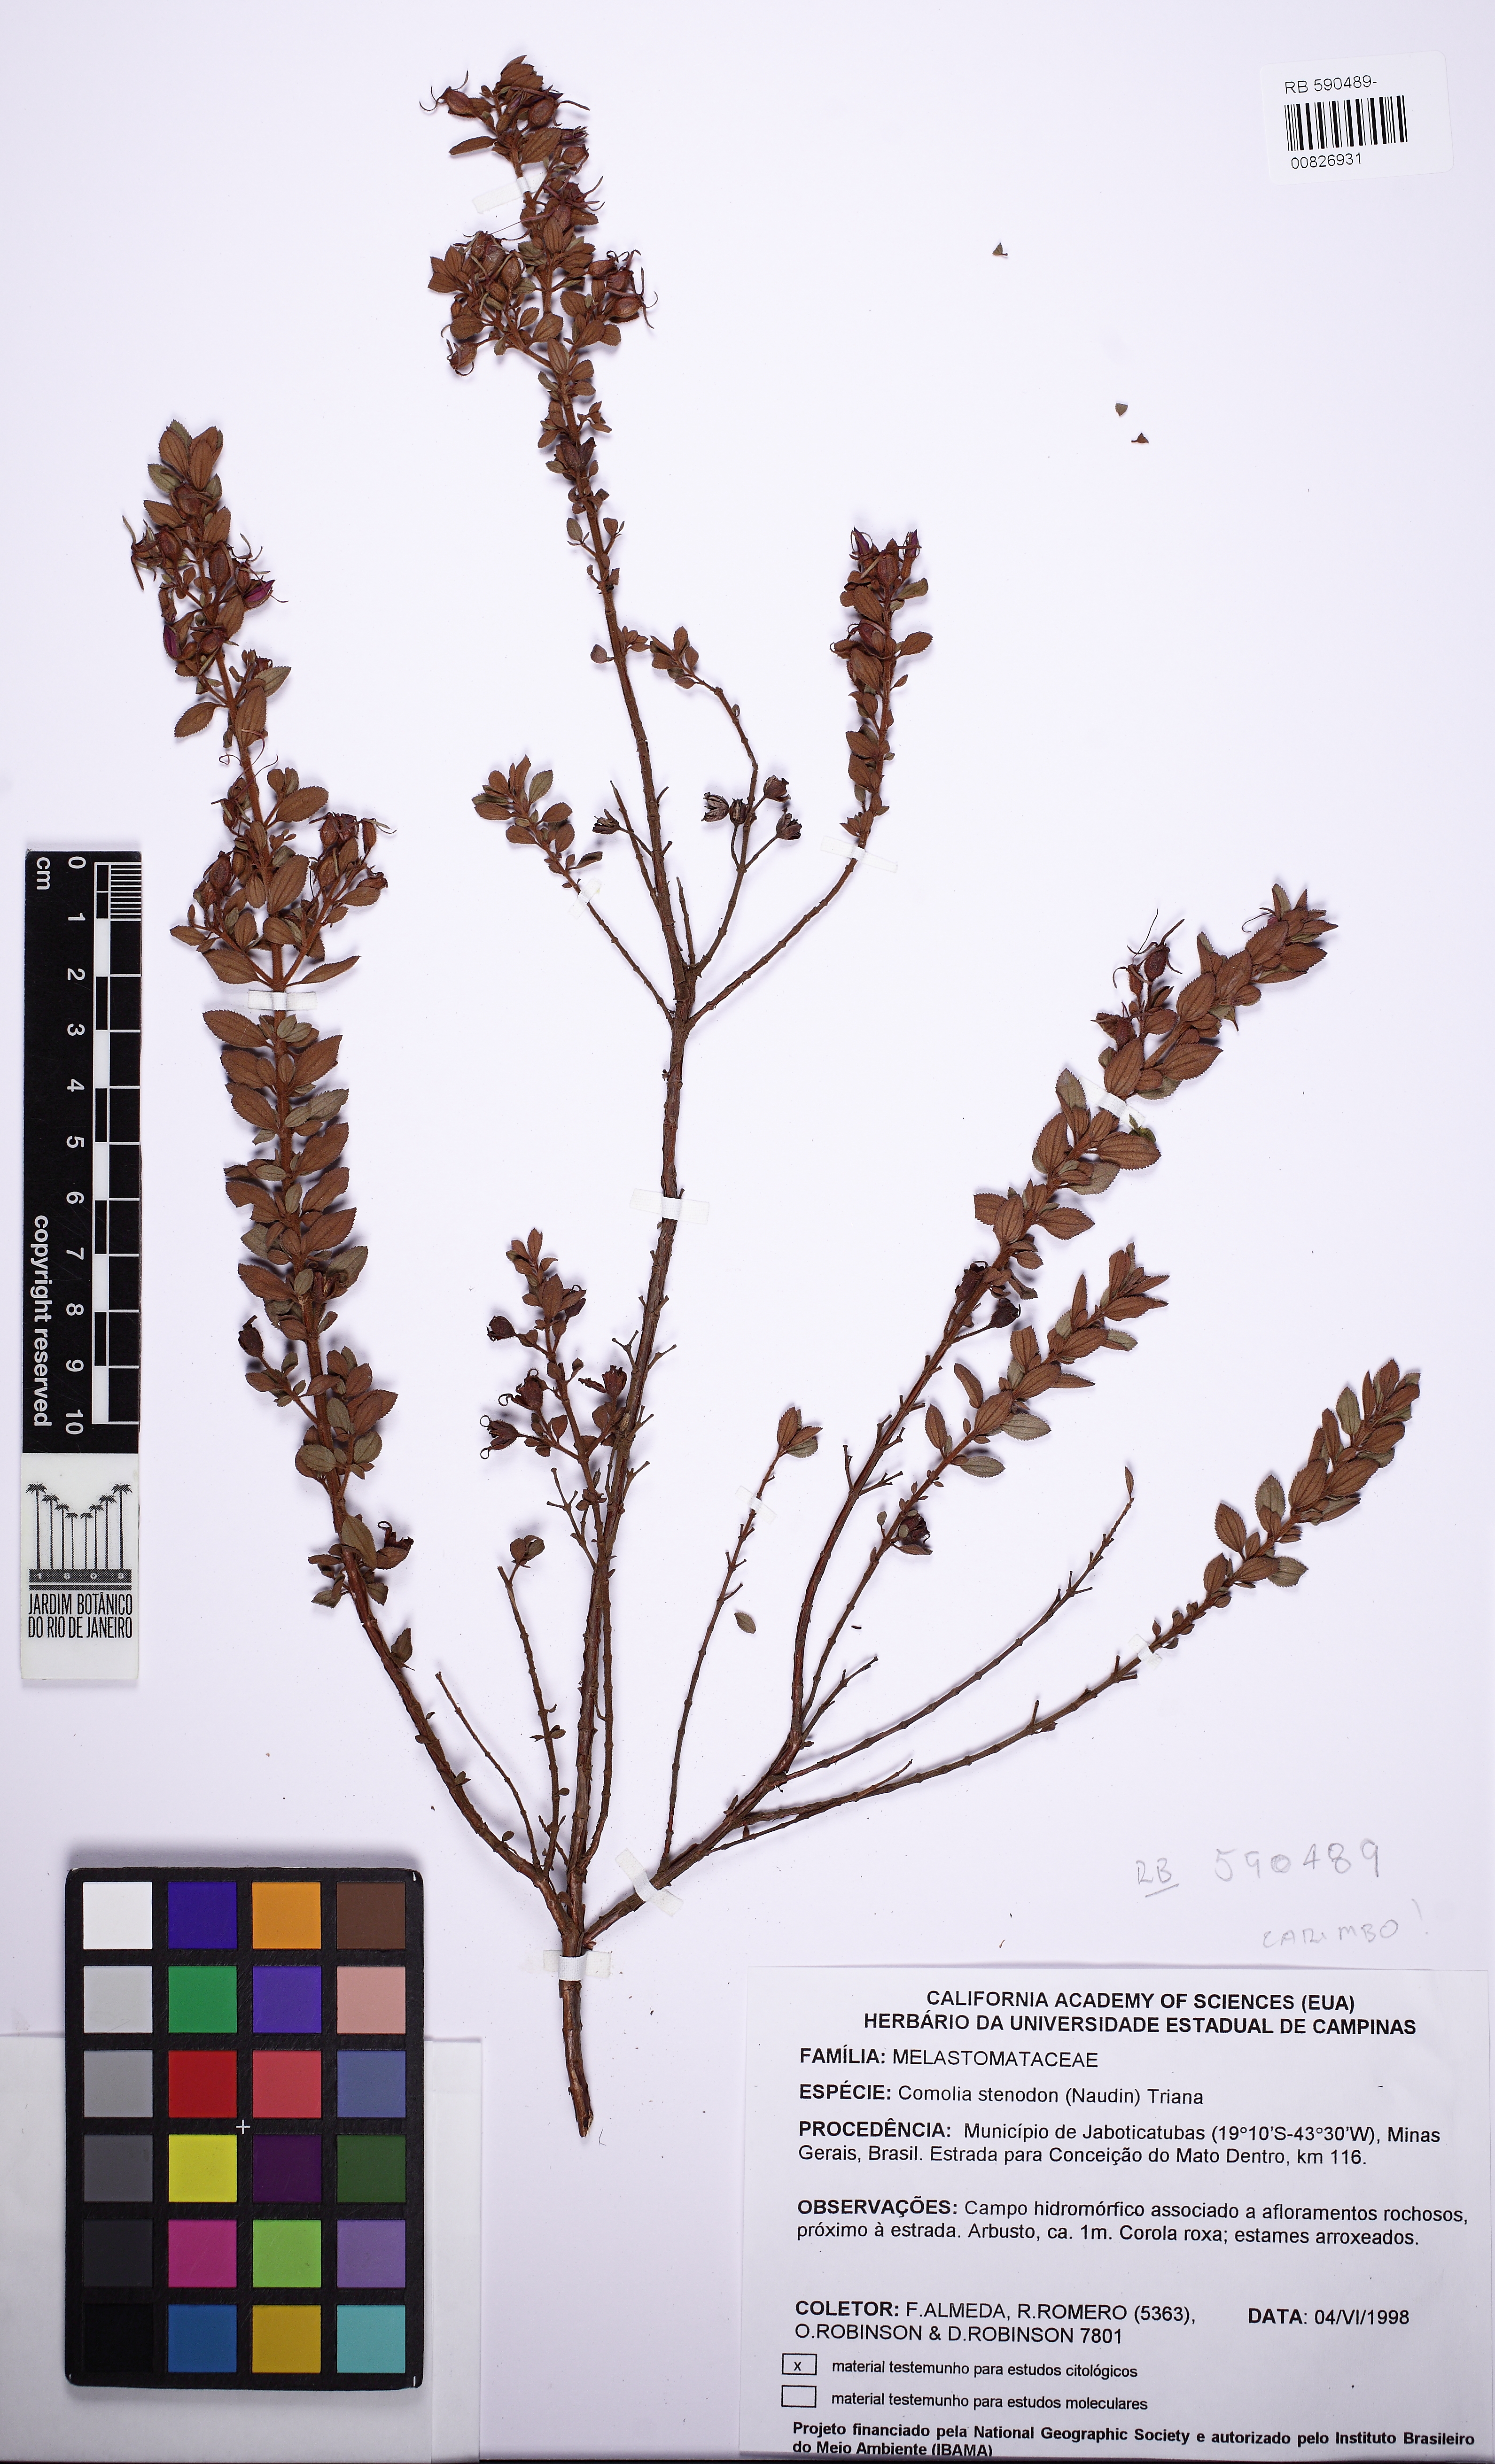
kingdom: Plantae
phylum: Tracheophyta
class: Magnoliopsida
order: Myrtales
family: Melastomataceae
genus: Fritzschia
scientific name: Fritzschia stenodon
